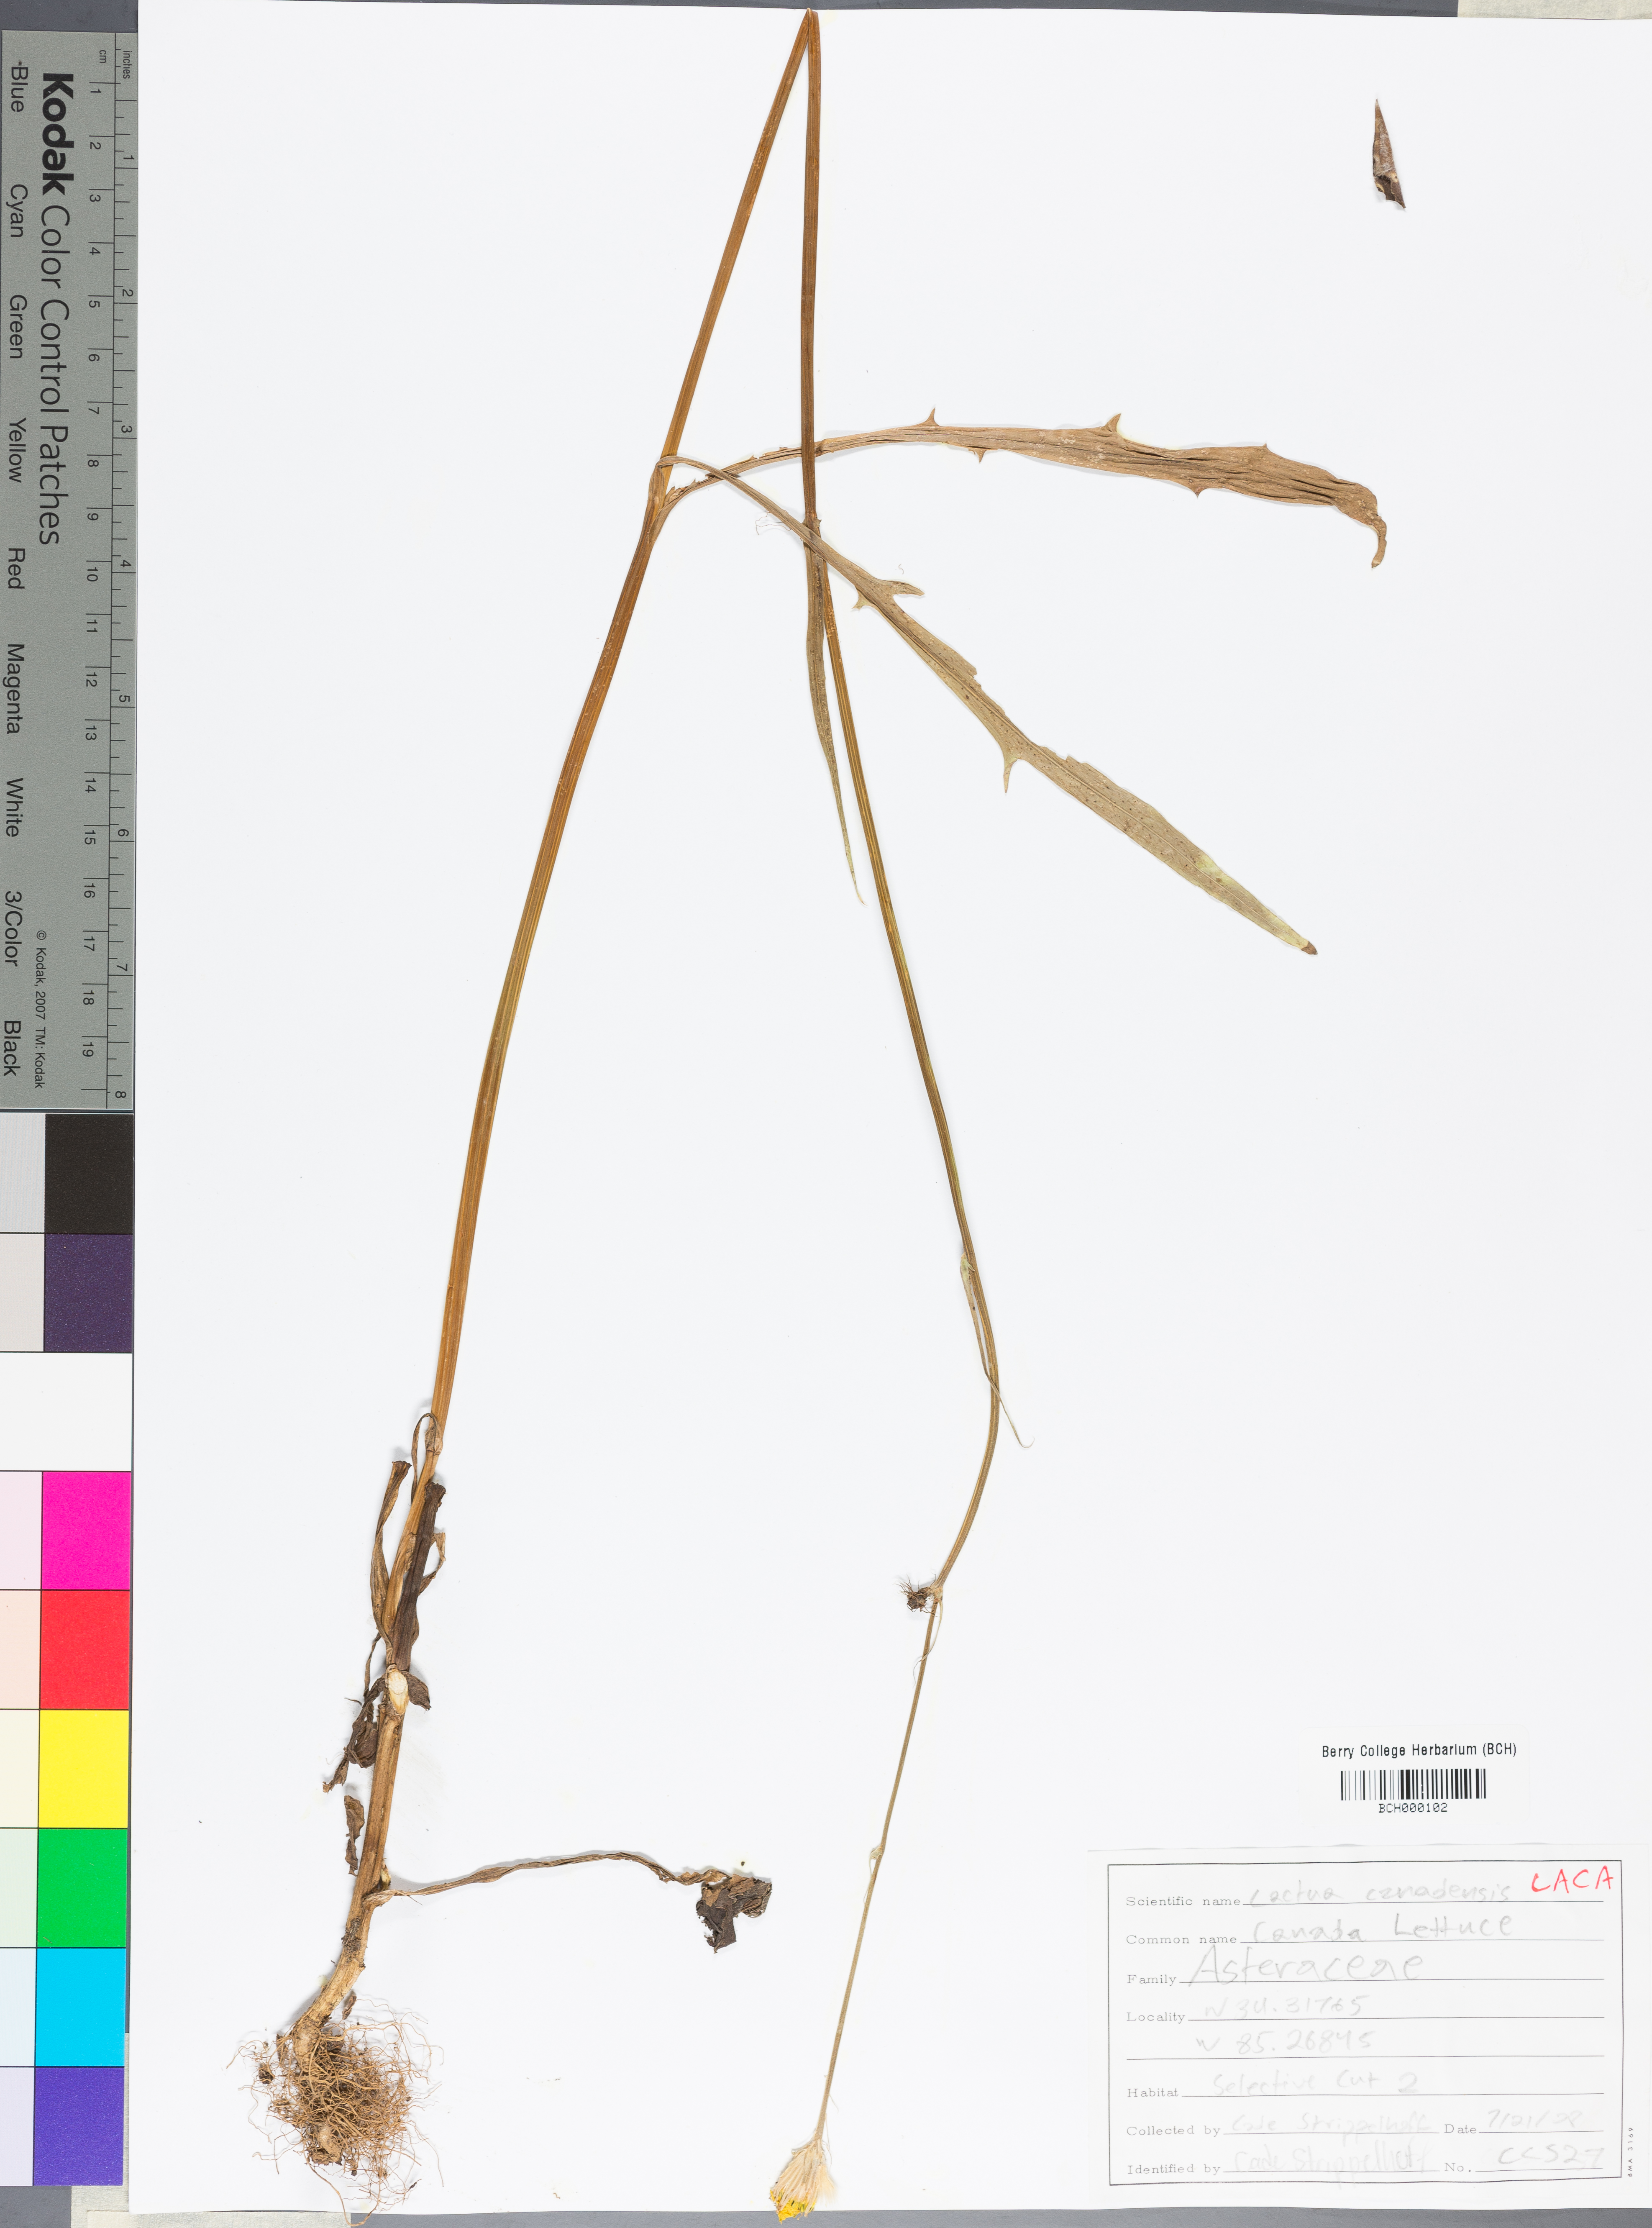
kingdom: Plantae
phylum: Tracheophyta
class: Magnoliopsida
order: Asterales
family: Asteraceae
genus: Lactuca
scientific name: Lactuca canadensis
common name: Canada lettuce
